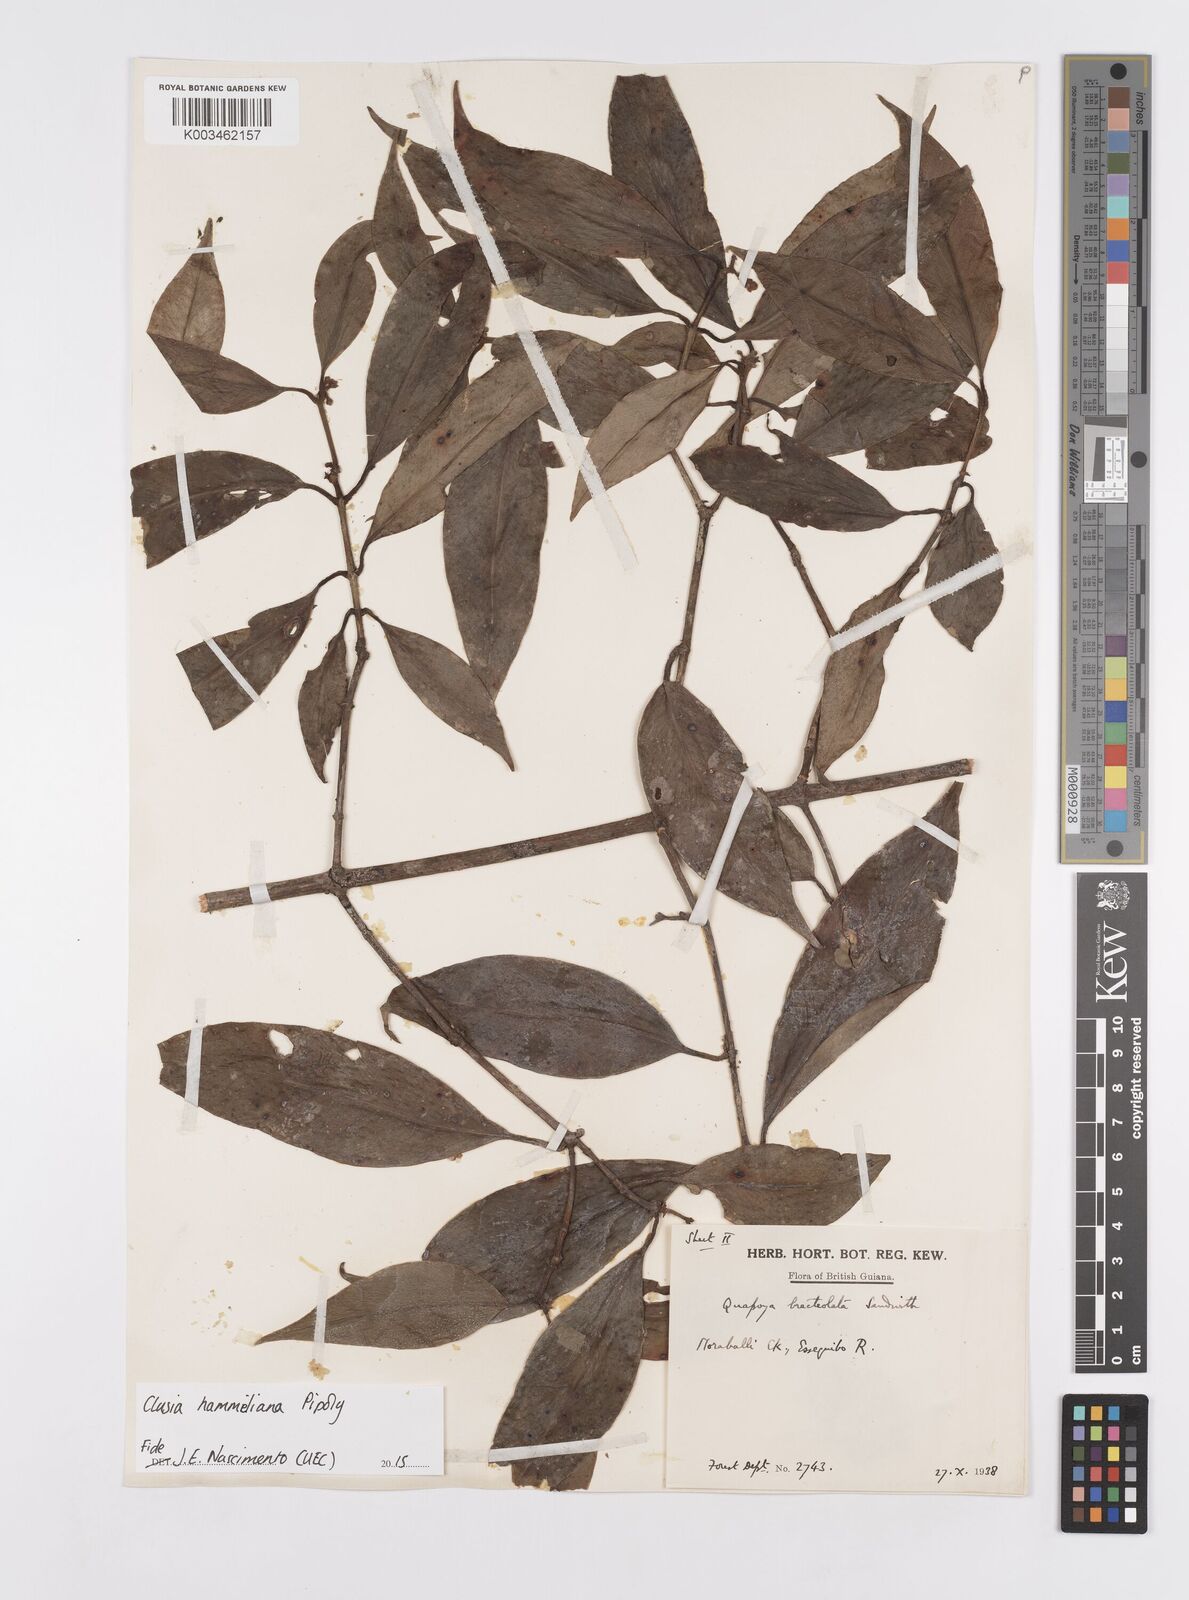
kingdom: Plantae
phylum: Tracheophyta
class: Magnoliopsida
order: Malpighiales
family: Clusiaceae
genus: Clusia
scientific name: Clusia hammeliana
